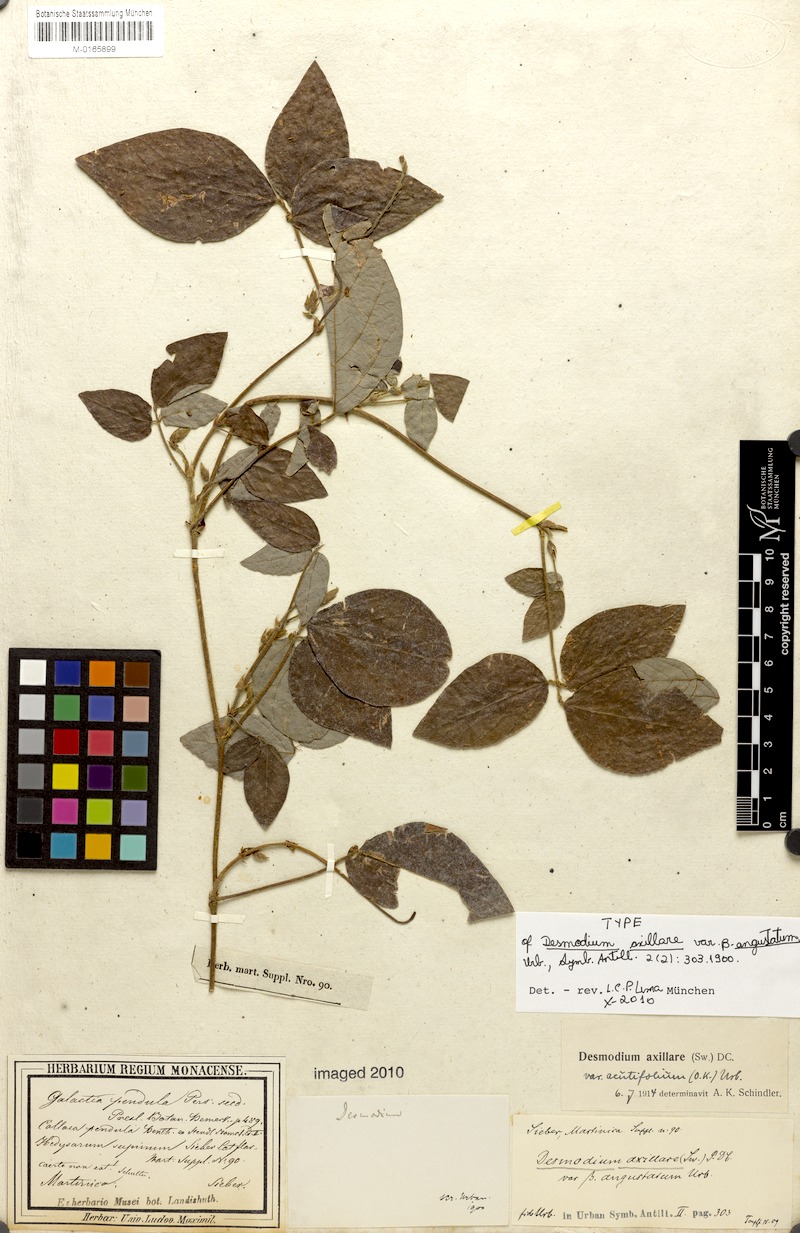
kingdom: Plantae
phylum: Tracheophyta
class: Magnoliopsida
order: Fabales
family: Fabaceae
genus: Desmodium
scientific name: Desmodium axillare
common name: Wire with
